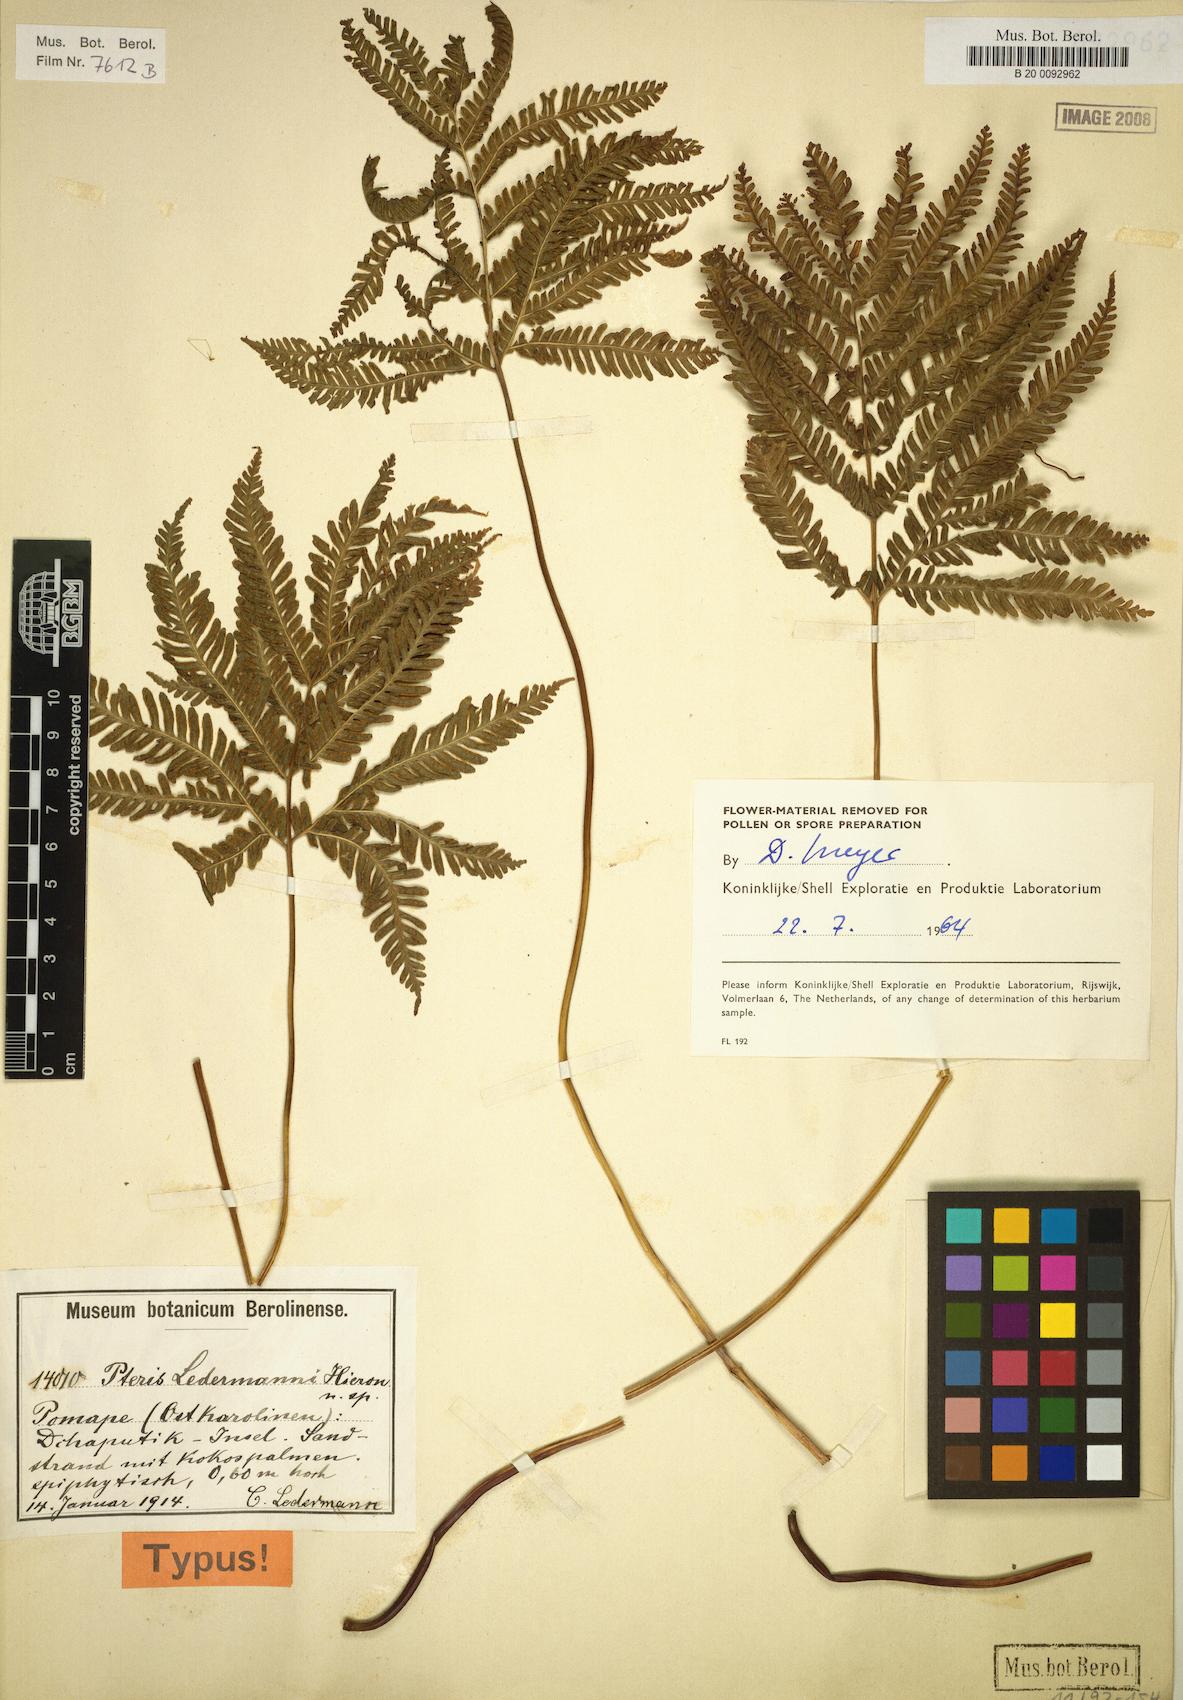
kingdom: Plantae
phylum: Tracheophyta
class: Polypodiopsida
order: Polypodiales
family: Pteridaceae
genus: Pteris
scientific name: Pteris
